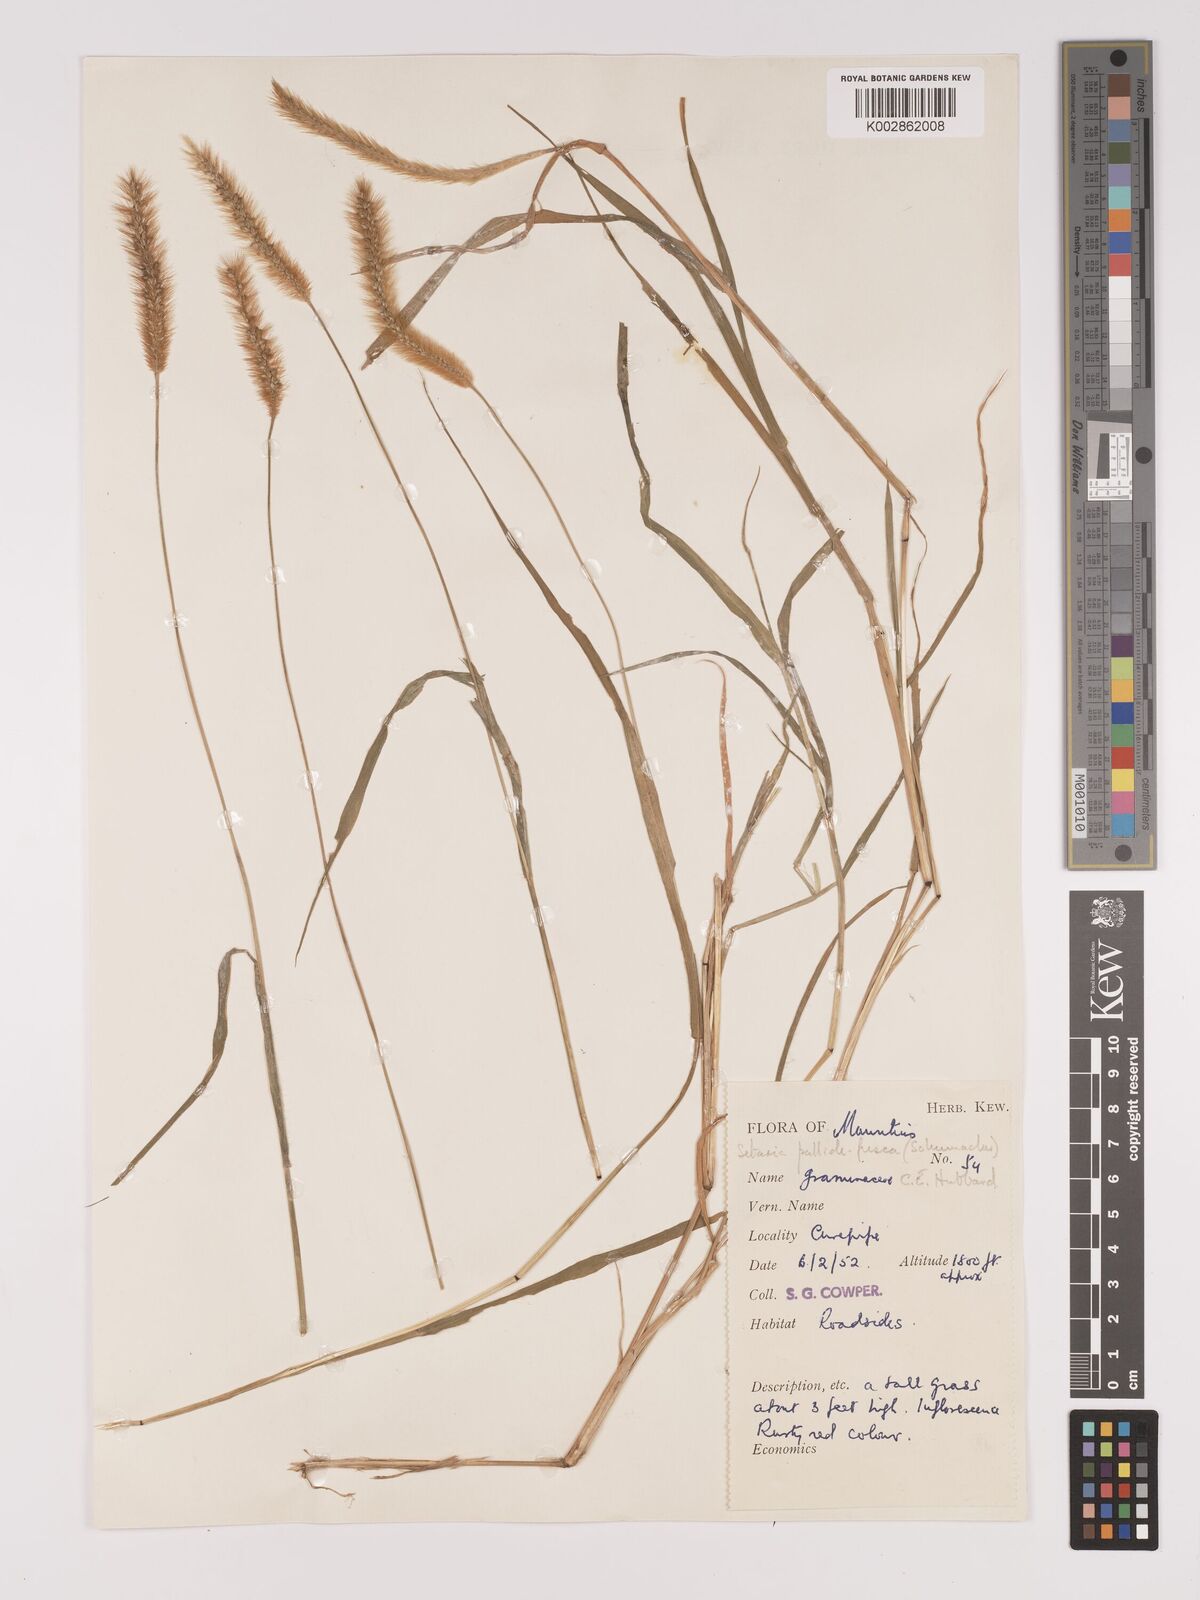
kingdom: Plantae
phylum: Tracheophyta
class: Liliopsida
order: Poales
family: Poaceae
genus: Setaria
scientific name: Setaria pumila
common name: Yellow bristle-grass
